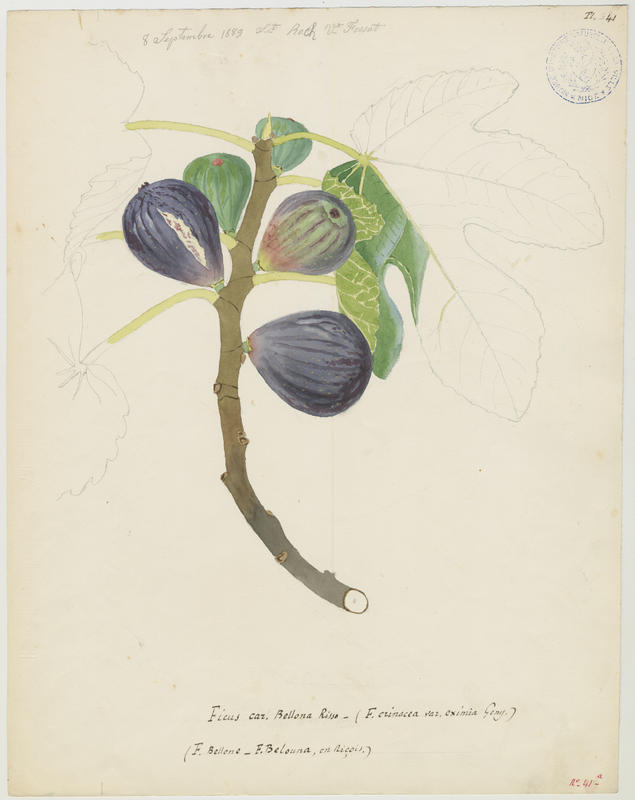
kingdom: Plantae
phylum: Tracheophyta
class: Magnoliopsida
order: Rosales
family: Moraceae
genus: Ficus
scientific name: Ficus carica
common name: Fig
